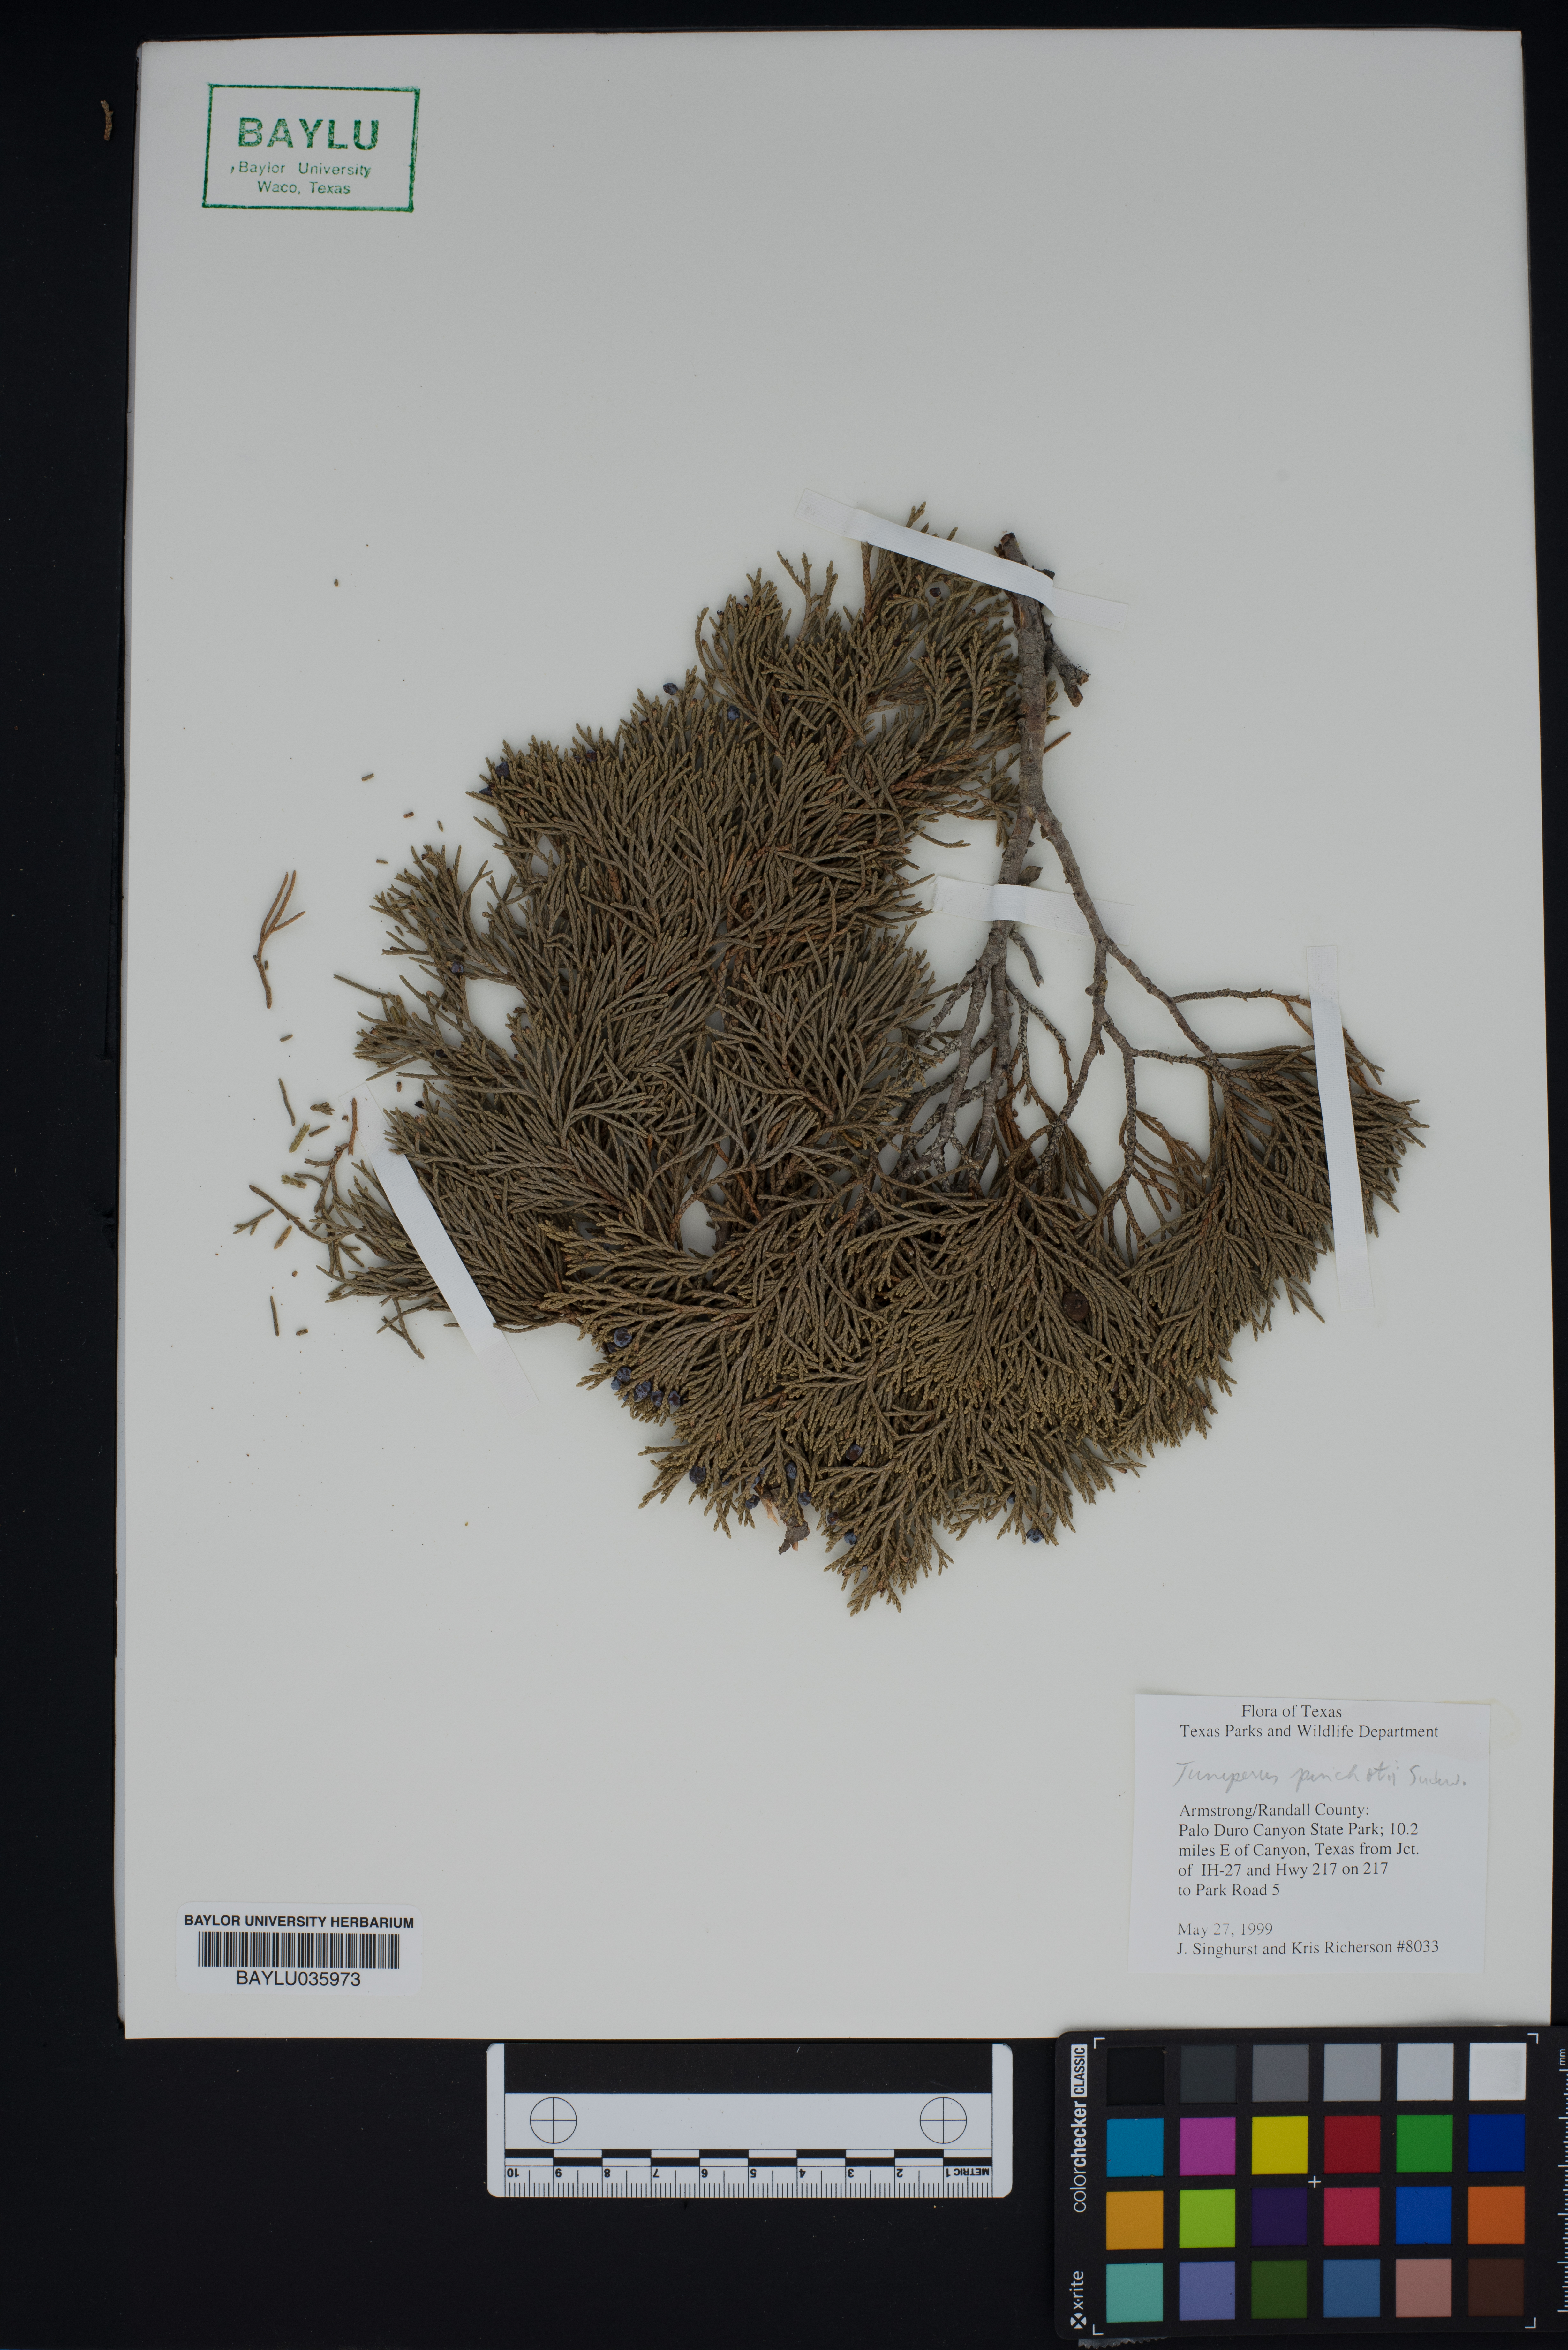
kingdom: Plantae
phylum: Tracheophyta
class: Pinopsida
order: Pinales
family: Cupressaceae
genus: Juniperus
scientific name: Juniperus pinchotii
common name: Pinchot juniper
